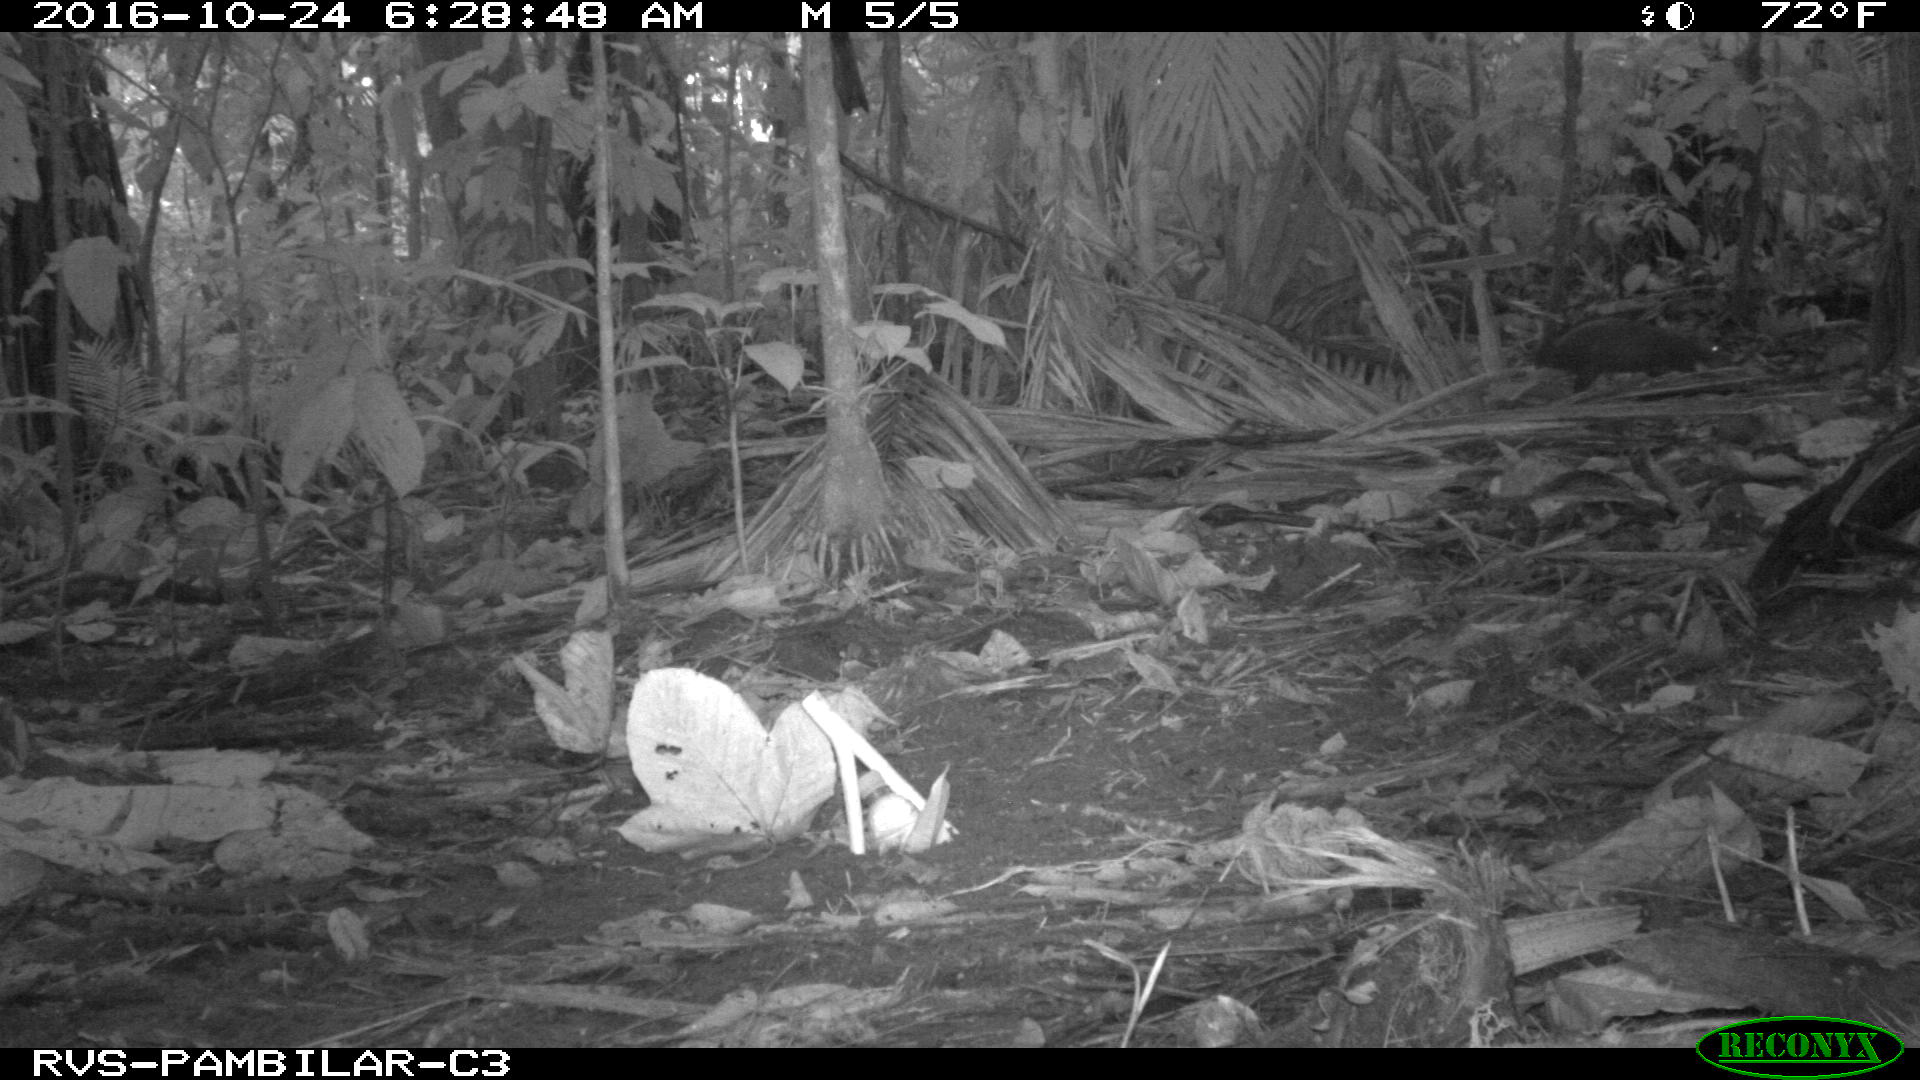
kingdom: Animalia
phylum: Chordata
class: Mammalia
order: Rodentia
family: Dasyproctidae
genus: Dasyprocta
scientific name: Dasyprocta punctata
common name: Central american agouti
